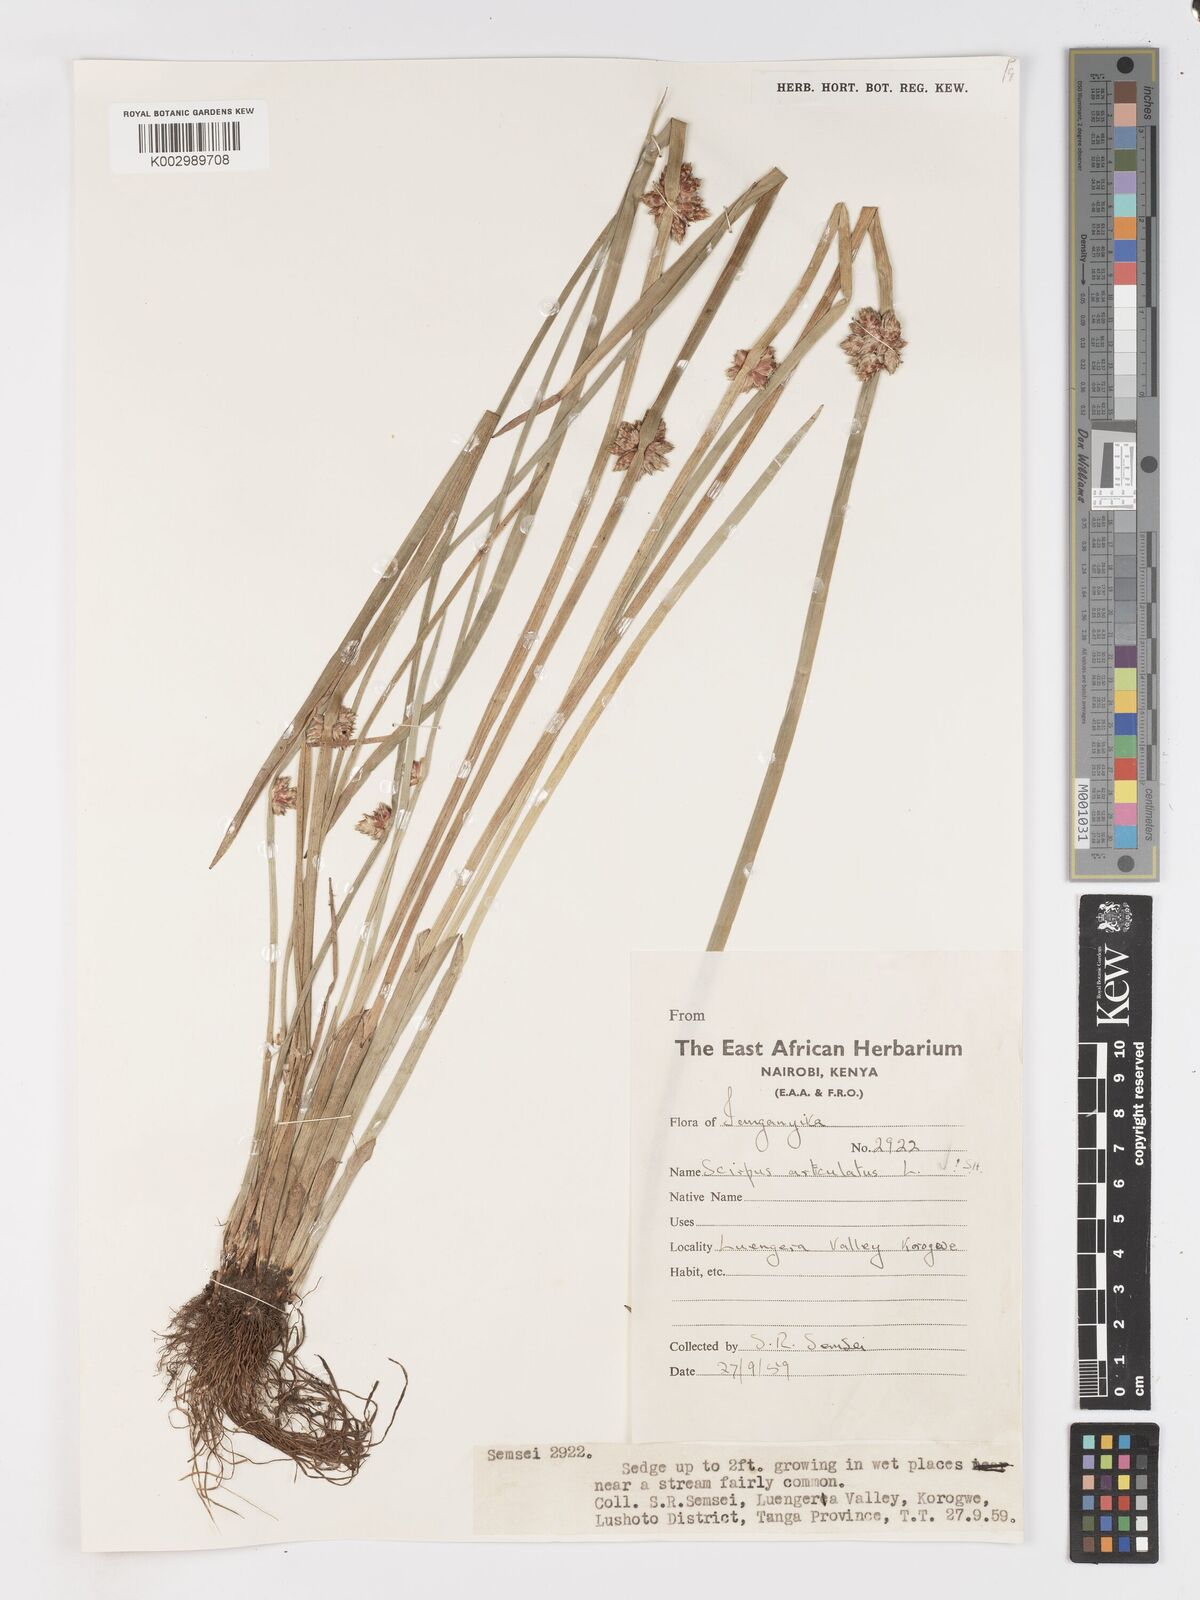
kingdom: Plantae
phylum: Tracheophyta
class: Liliopsida
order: Poales
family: Cyperaceae
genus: Schoenoplectiella
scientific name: Schoenoplectiella articulata
